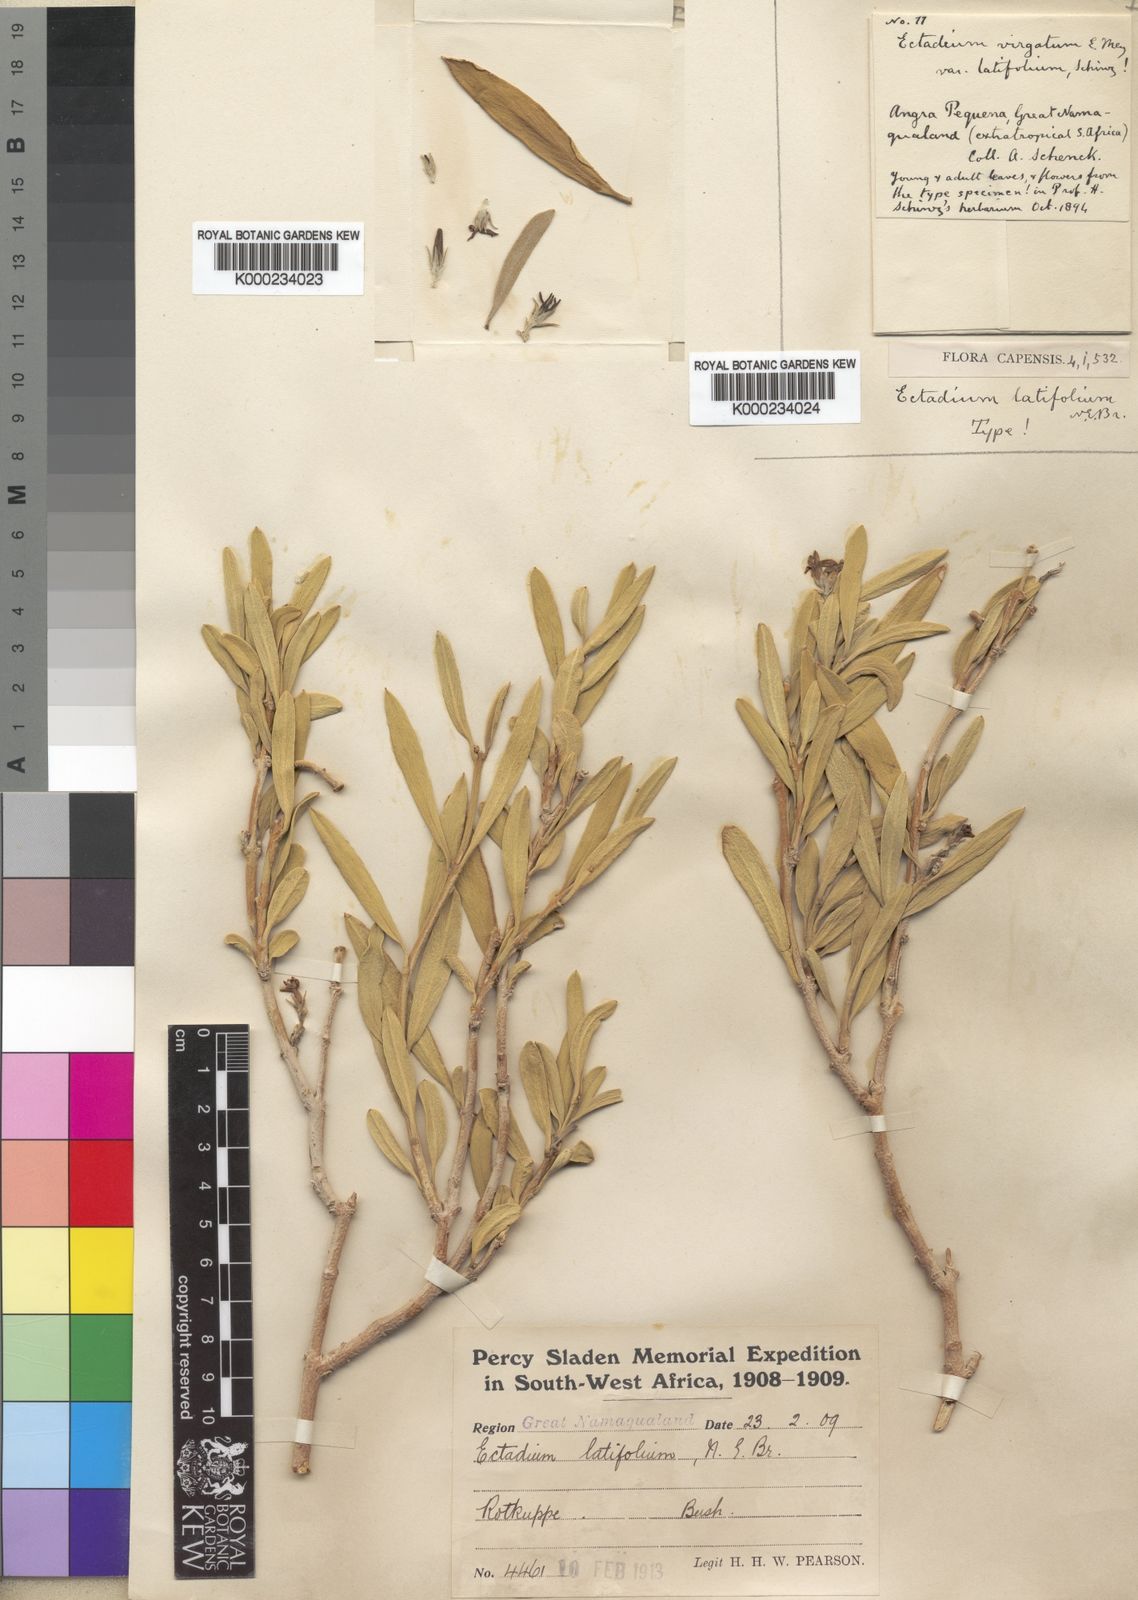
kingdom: Plantae
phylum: Tracheophyta
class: Magnoliopsida
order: Gentianales
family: Apocynaceae
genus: Ectadium
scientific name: Ectadium virgatum
